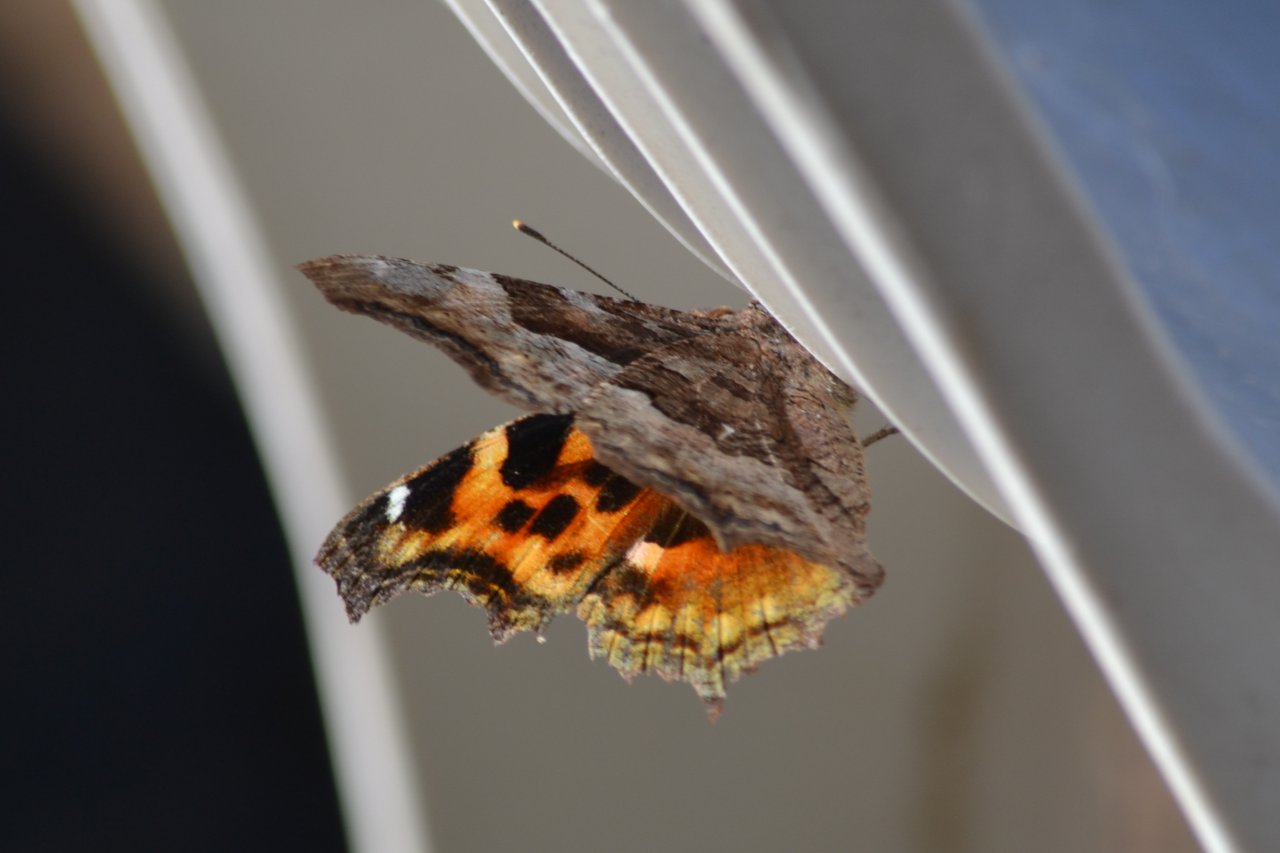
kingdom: Animalia
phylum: Arthropoda
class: Insecta
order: Lepidoptera
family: Nymphalidae
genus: Polygonia
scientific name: Polygonia vaualbum
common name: Compton Tortoiseshell
